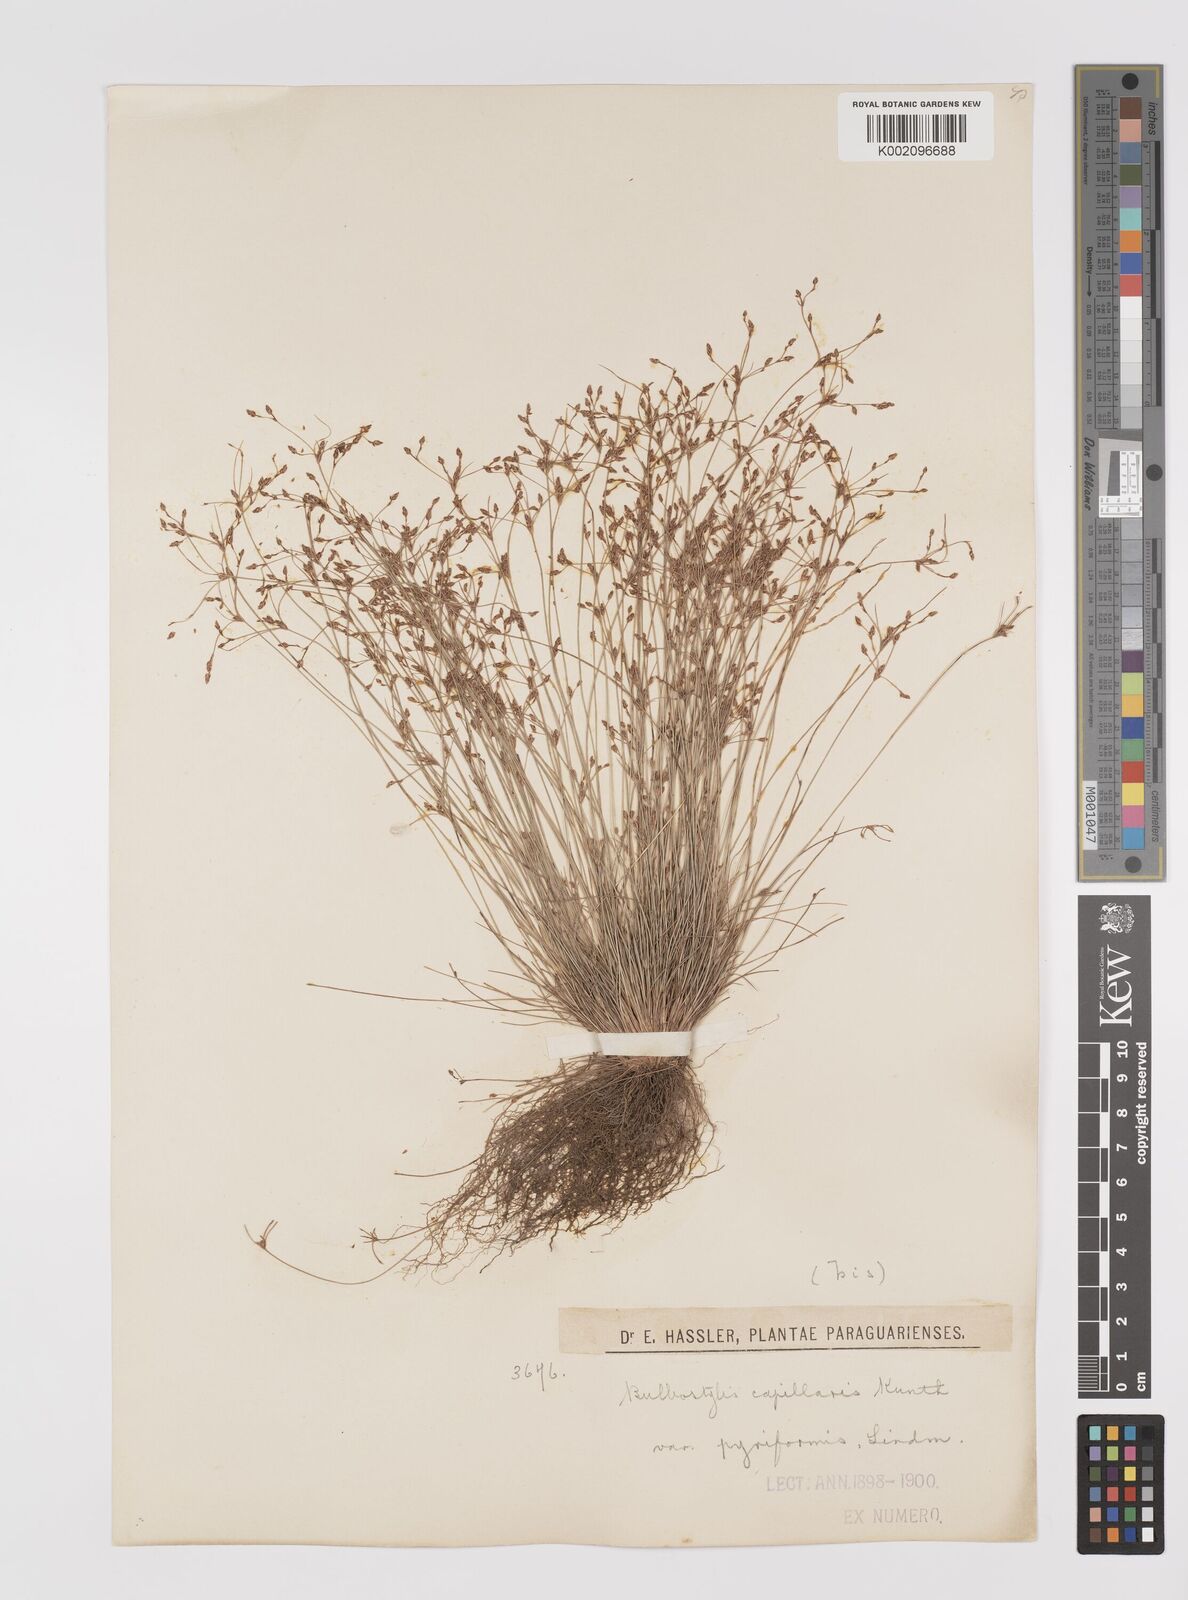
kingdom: Plantae
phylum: Tracheophyta
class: Liliopsida
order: Poales
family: Cyperaceae
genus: Bulbostylis
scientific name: Bulbostylis capillaris
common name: Densetuft hairsedge
